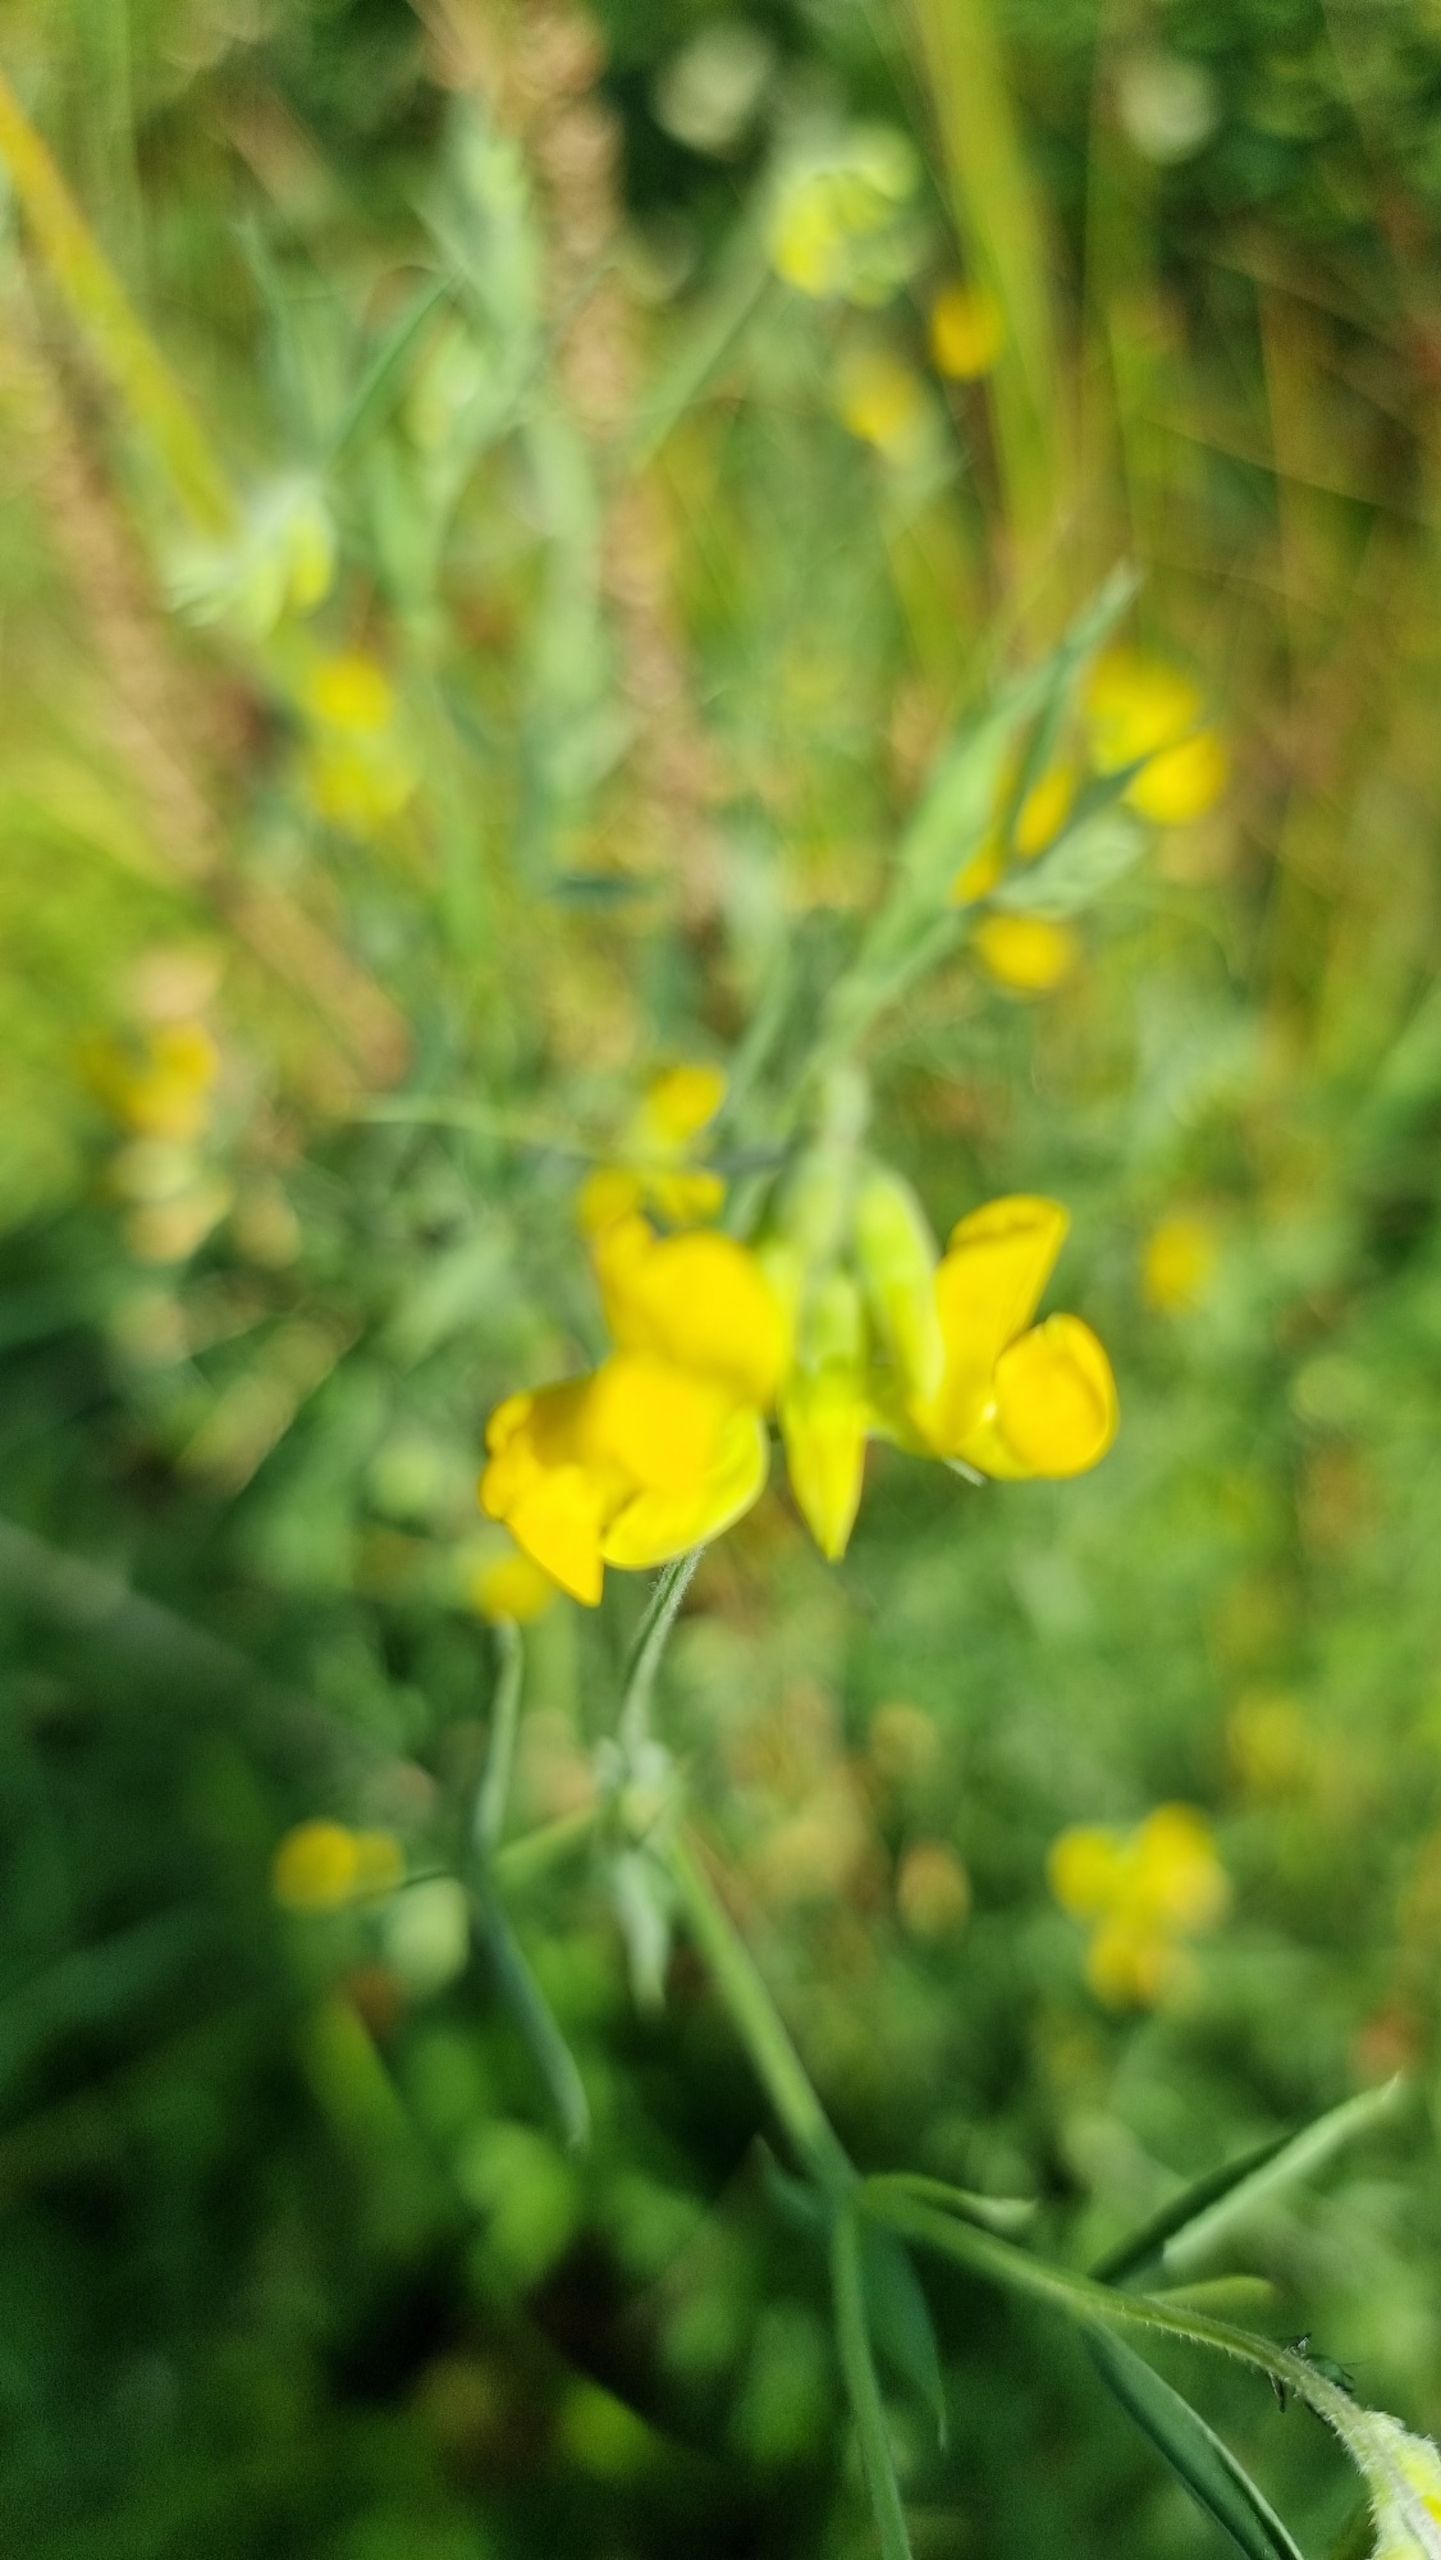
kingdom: Plantae
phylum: Tracheophyta
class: Magnoliopsida
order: Fabales
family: Fabaceae
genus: Lathyrus
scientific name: Lathyrus pratensis
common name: Gul fladbælg
